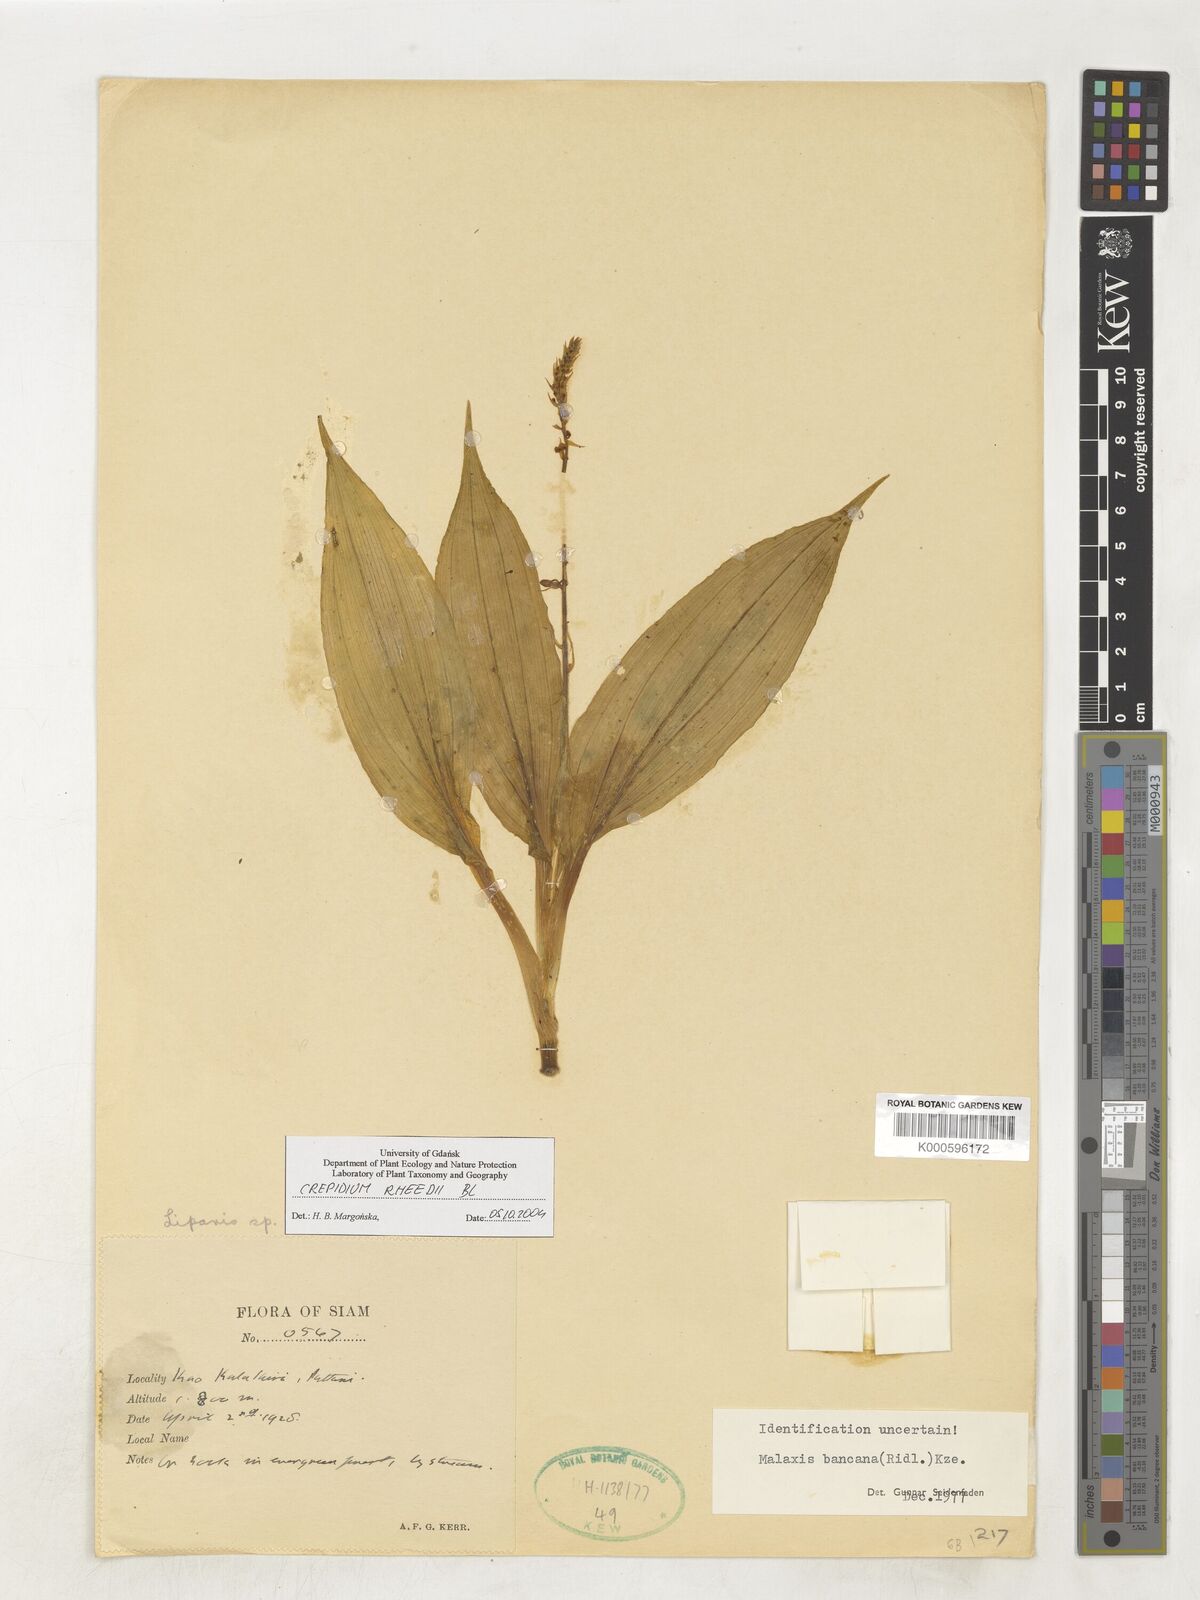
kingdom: Plantae
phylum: Tracheophyta
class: Liliopsida
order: Asparagales
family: Orchidaceae
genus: Crepidium
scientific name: Crepidium bancanum
